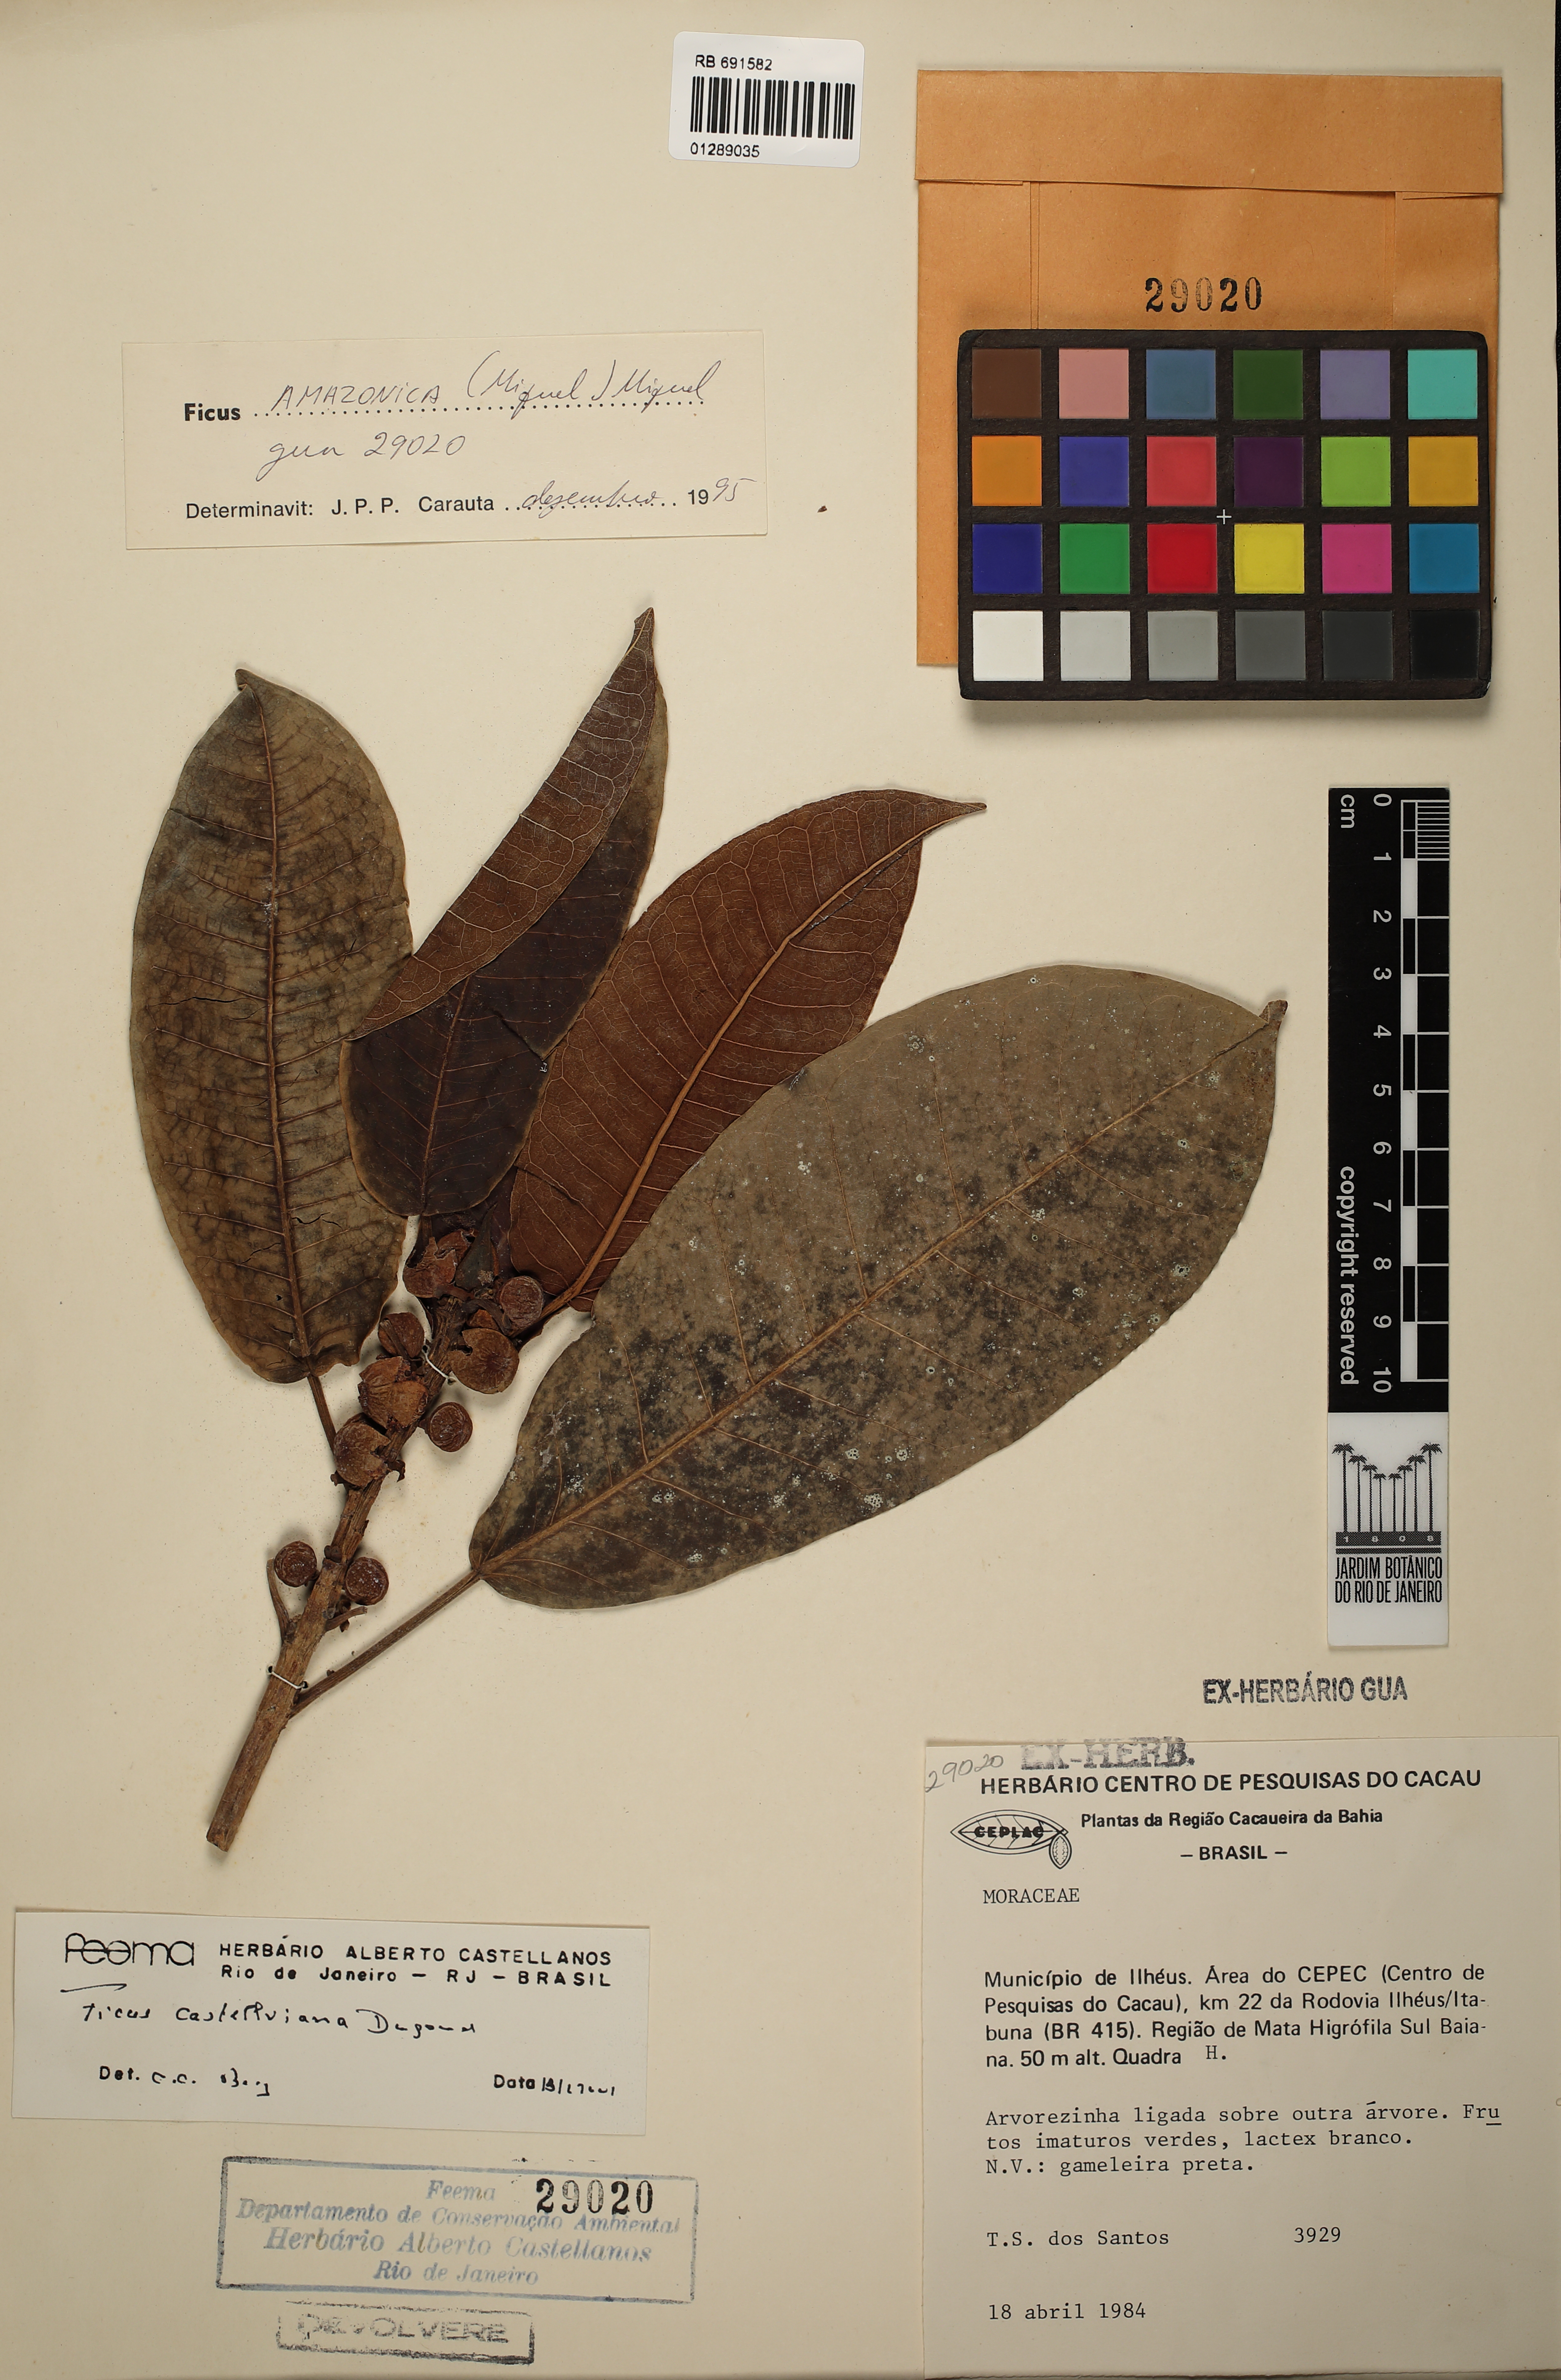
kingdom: Plantae
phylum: Tracheophyta
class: Magnoliopsida
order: Rosales
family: Moraceae
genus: Ficus
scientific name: Ficus castellviana
